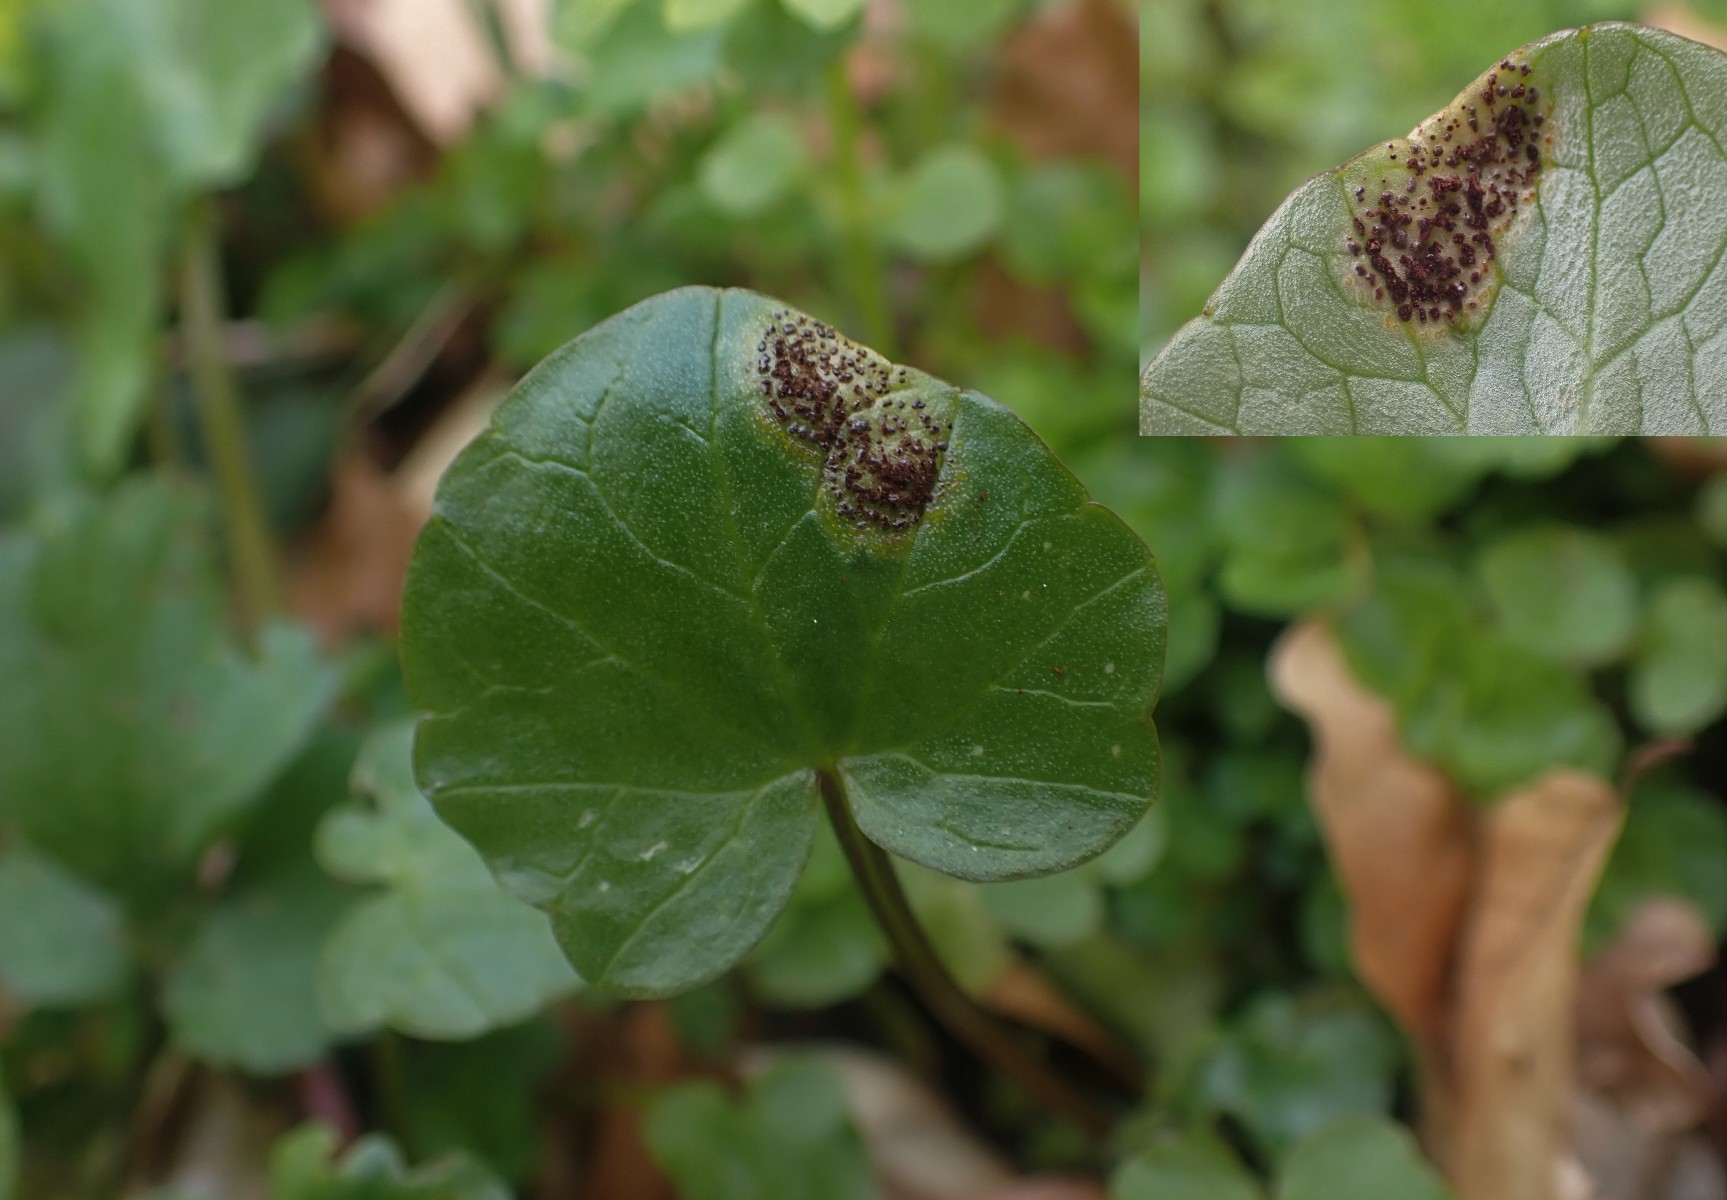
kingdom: Fungi
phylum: Basidiomycota
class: Pucciniomycetes
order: Pucciniales
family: Pucciniaceae
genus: Uromyces
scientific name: Uromyces ficariae
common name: vorterod-encellerust
